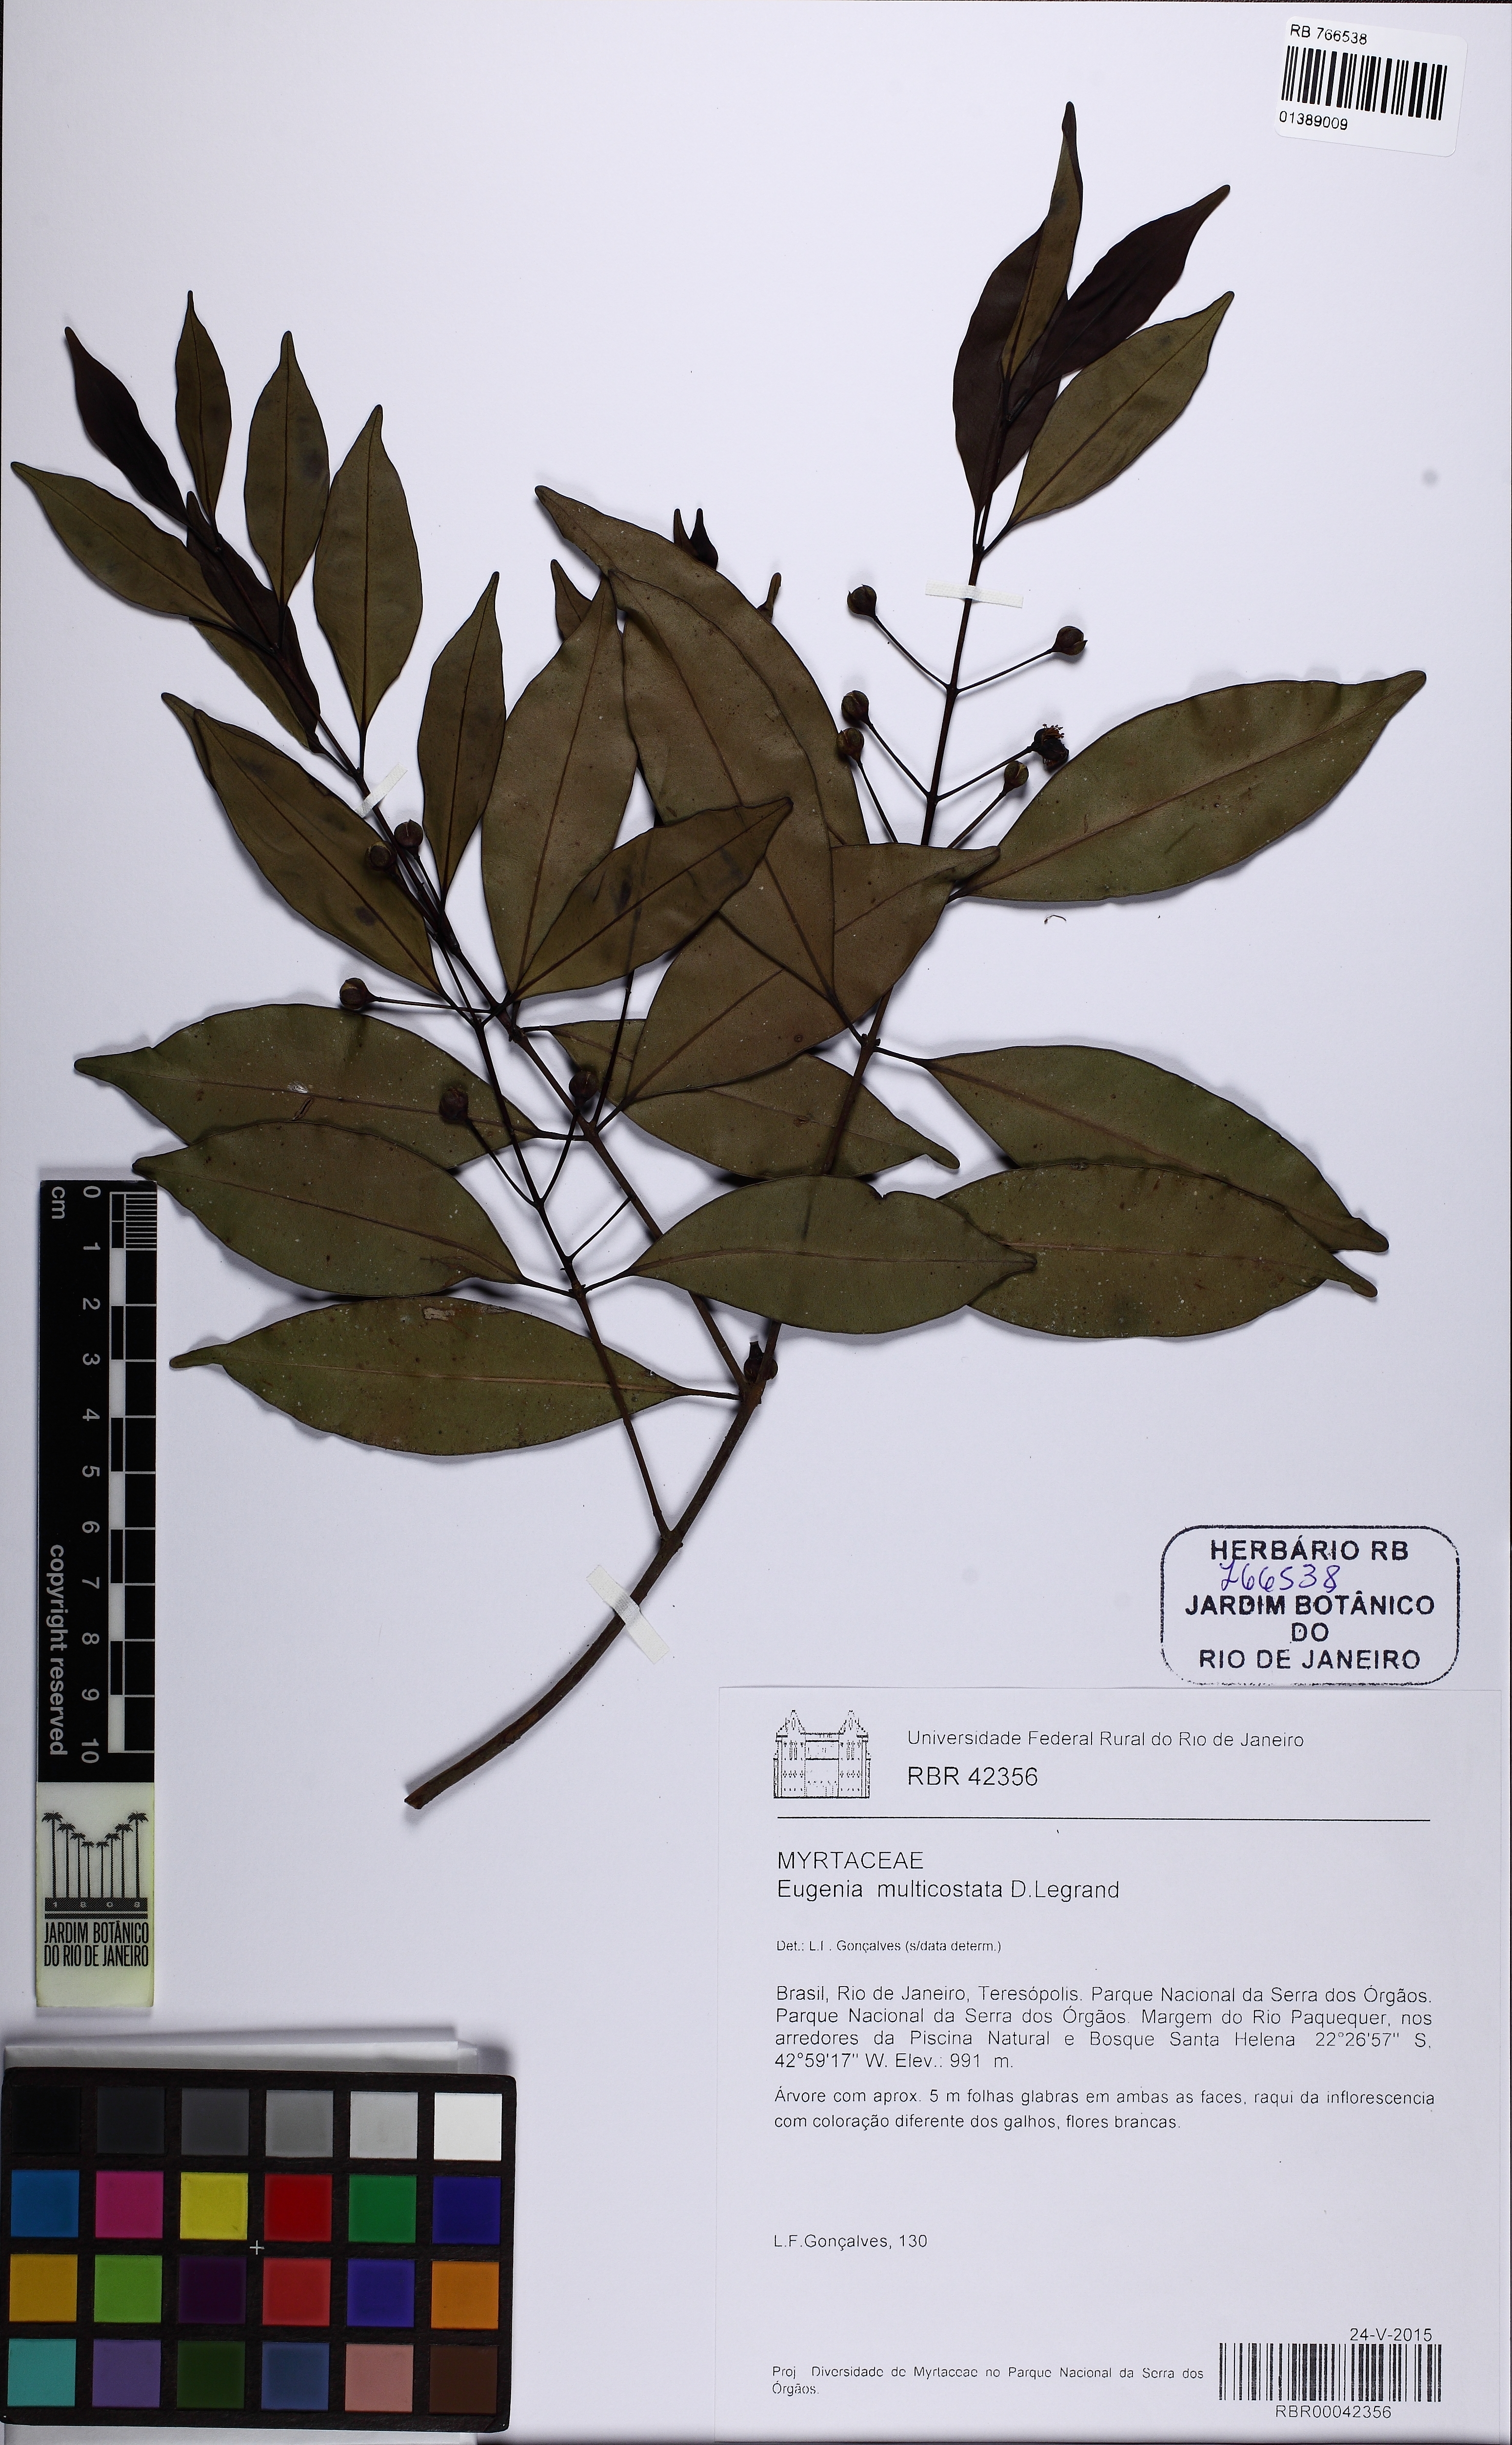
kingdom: Plantae
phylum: Tracheophyta
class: Magnoliopsida
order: Myrtales
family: Myrtaceae
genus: Eugenia
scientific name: Eugenia multicostata
